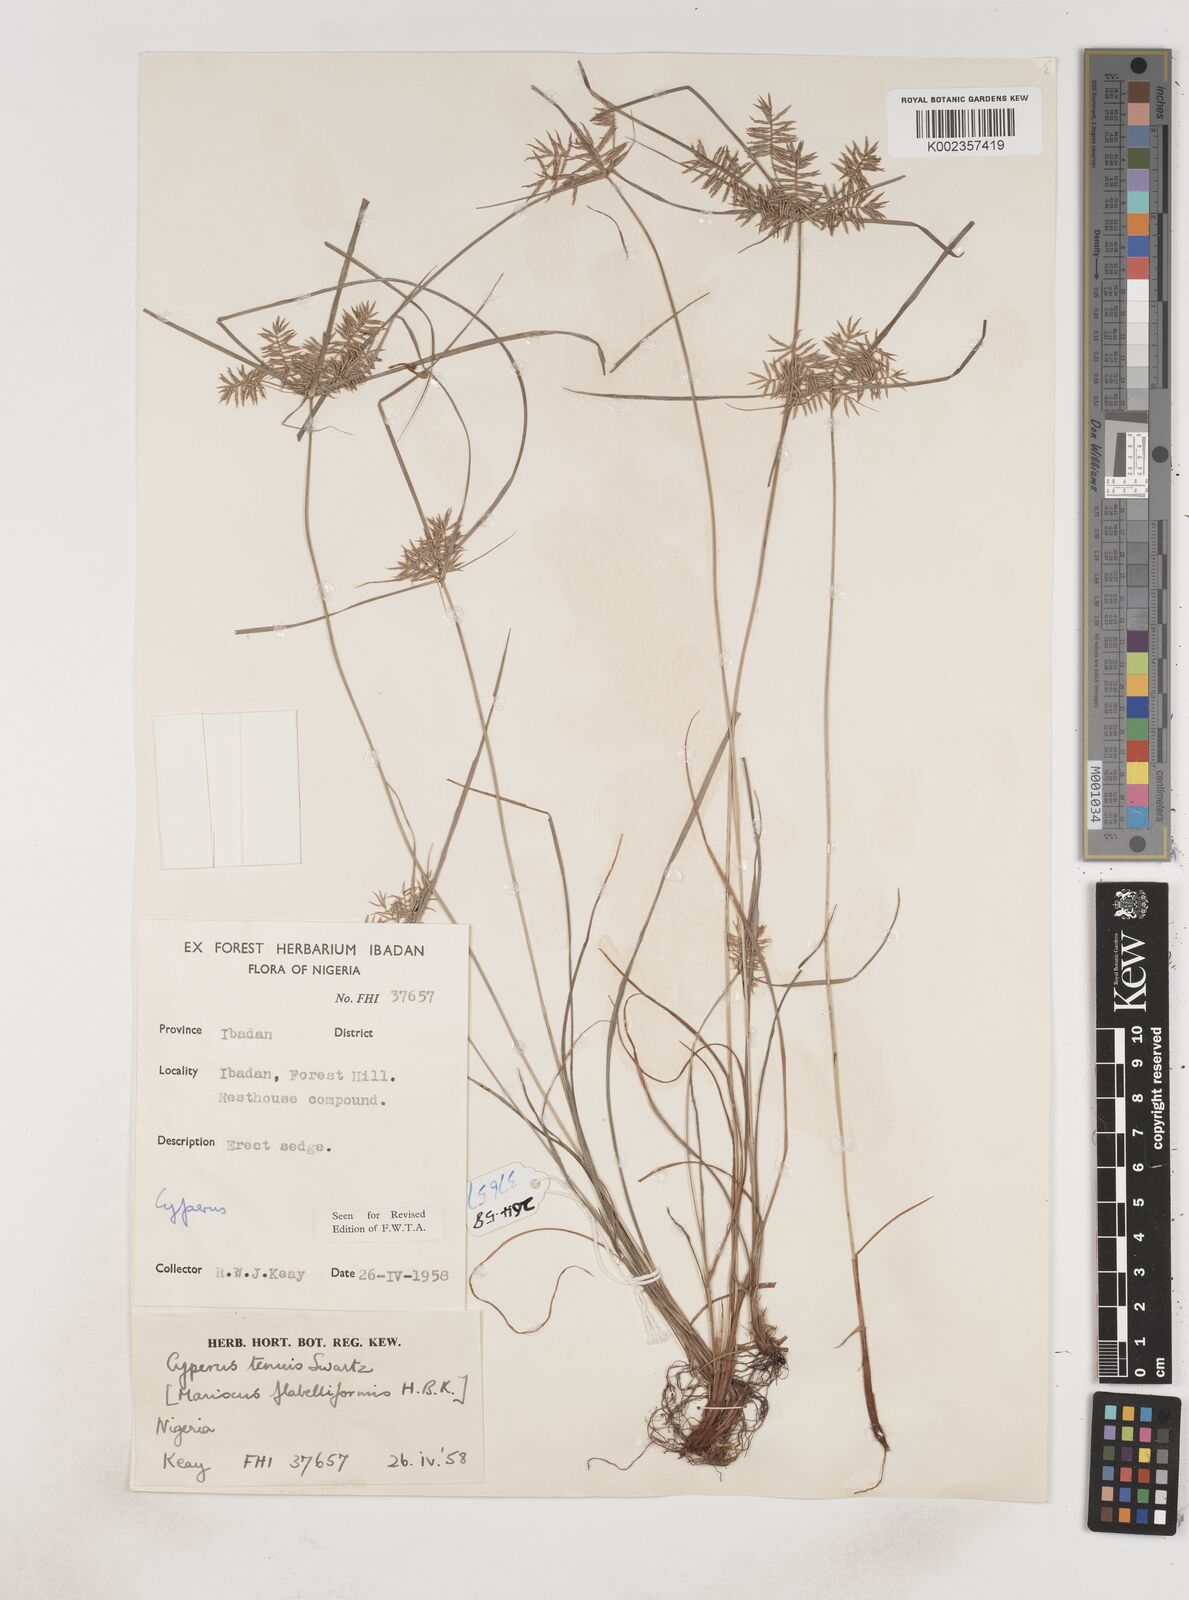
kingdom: Plantae
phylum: Tracheophyta
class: Liliopsida
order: Poales
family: Cyperaceae
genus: Cyperus
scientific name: Cyperus tenuis
